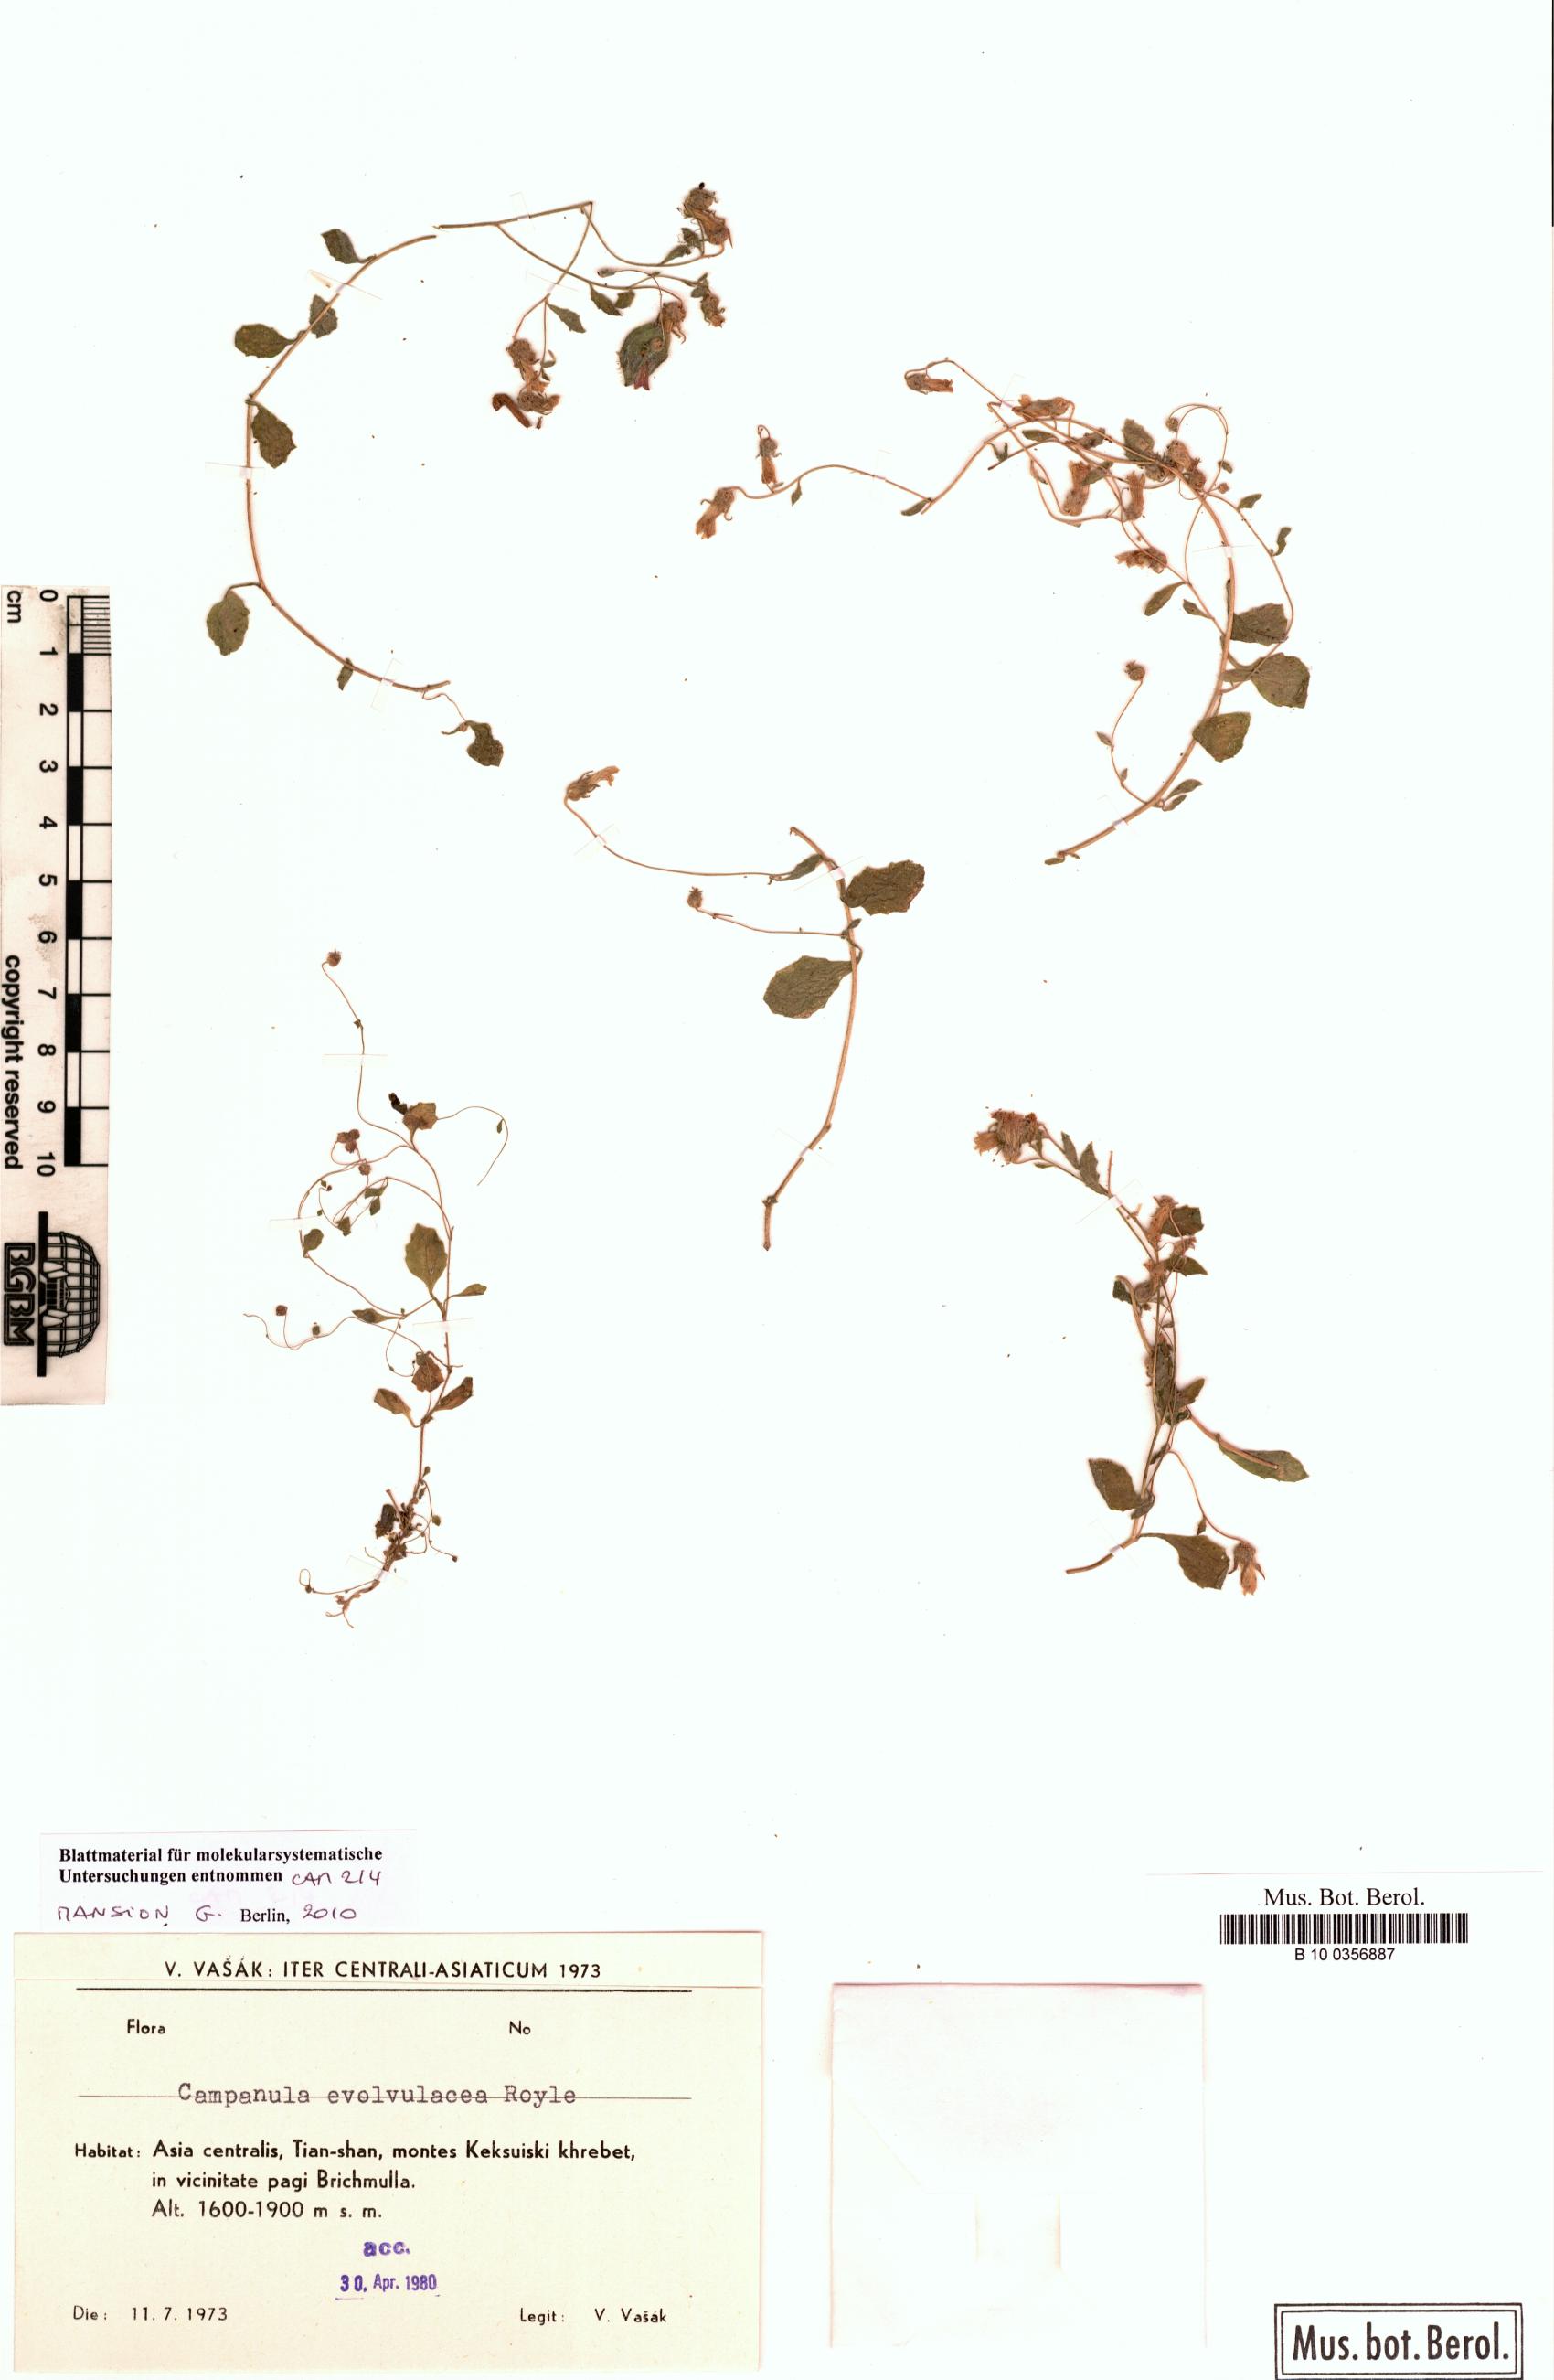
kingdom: Plantae
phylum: Tracheophyta
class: Magnoliopsida
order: Asterales
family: Campanulaceae
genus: Campanula
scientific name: Campanula cashmeriana
